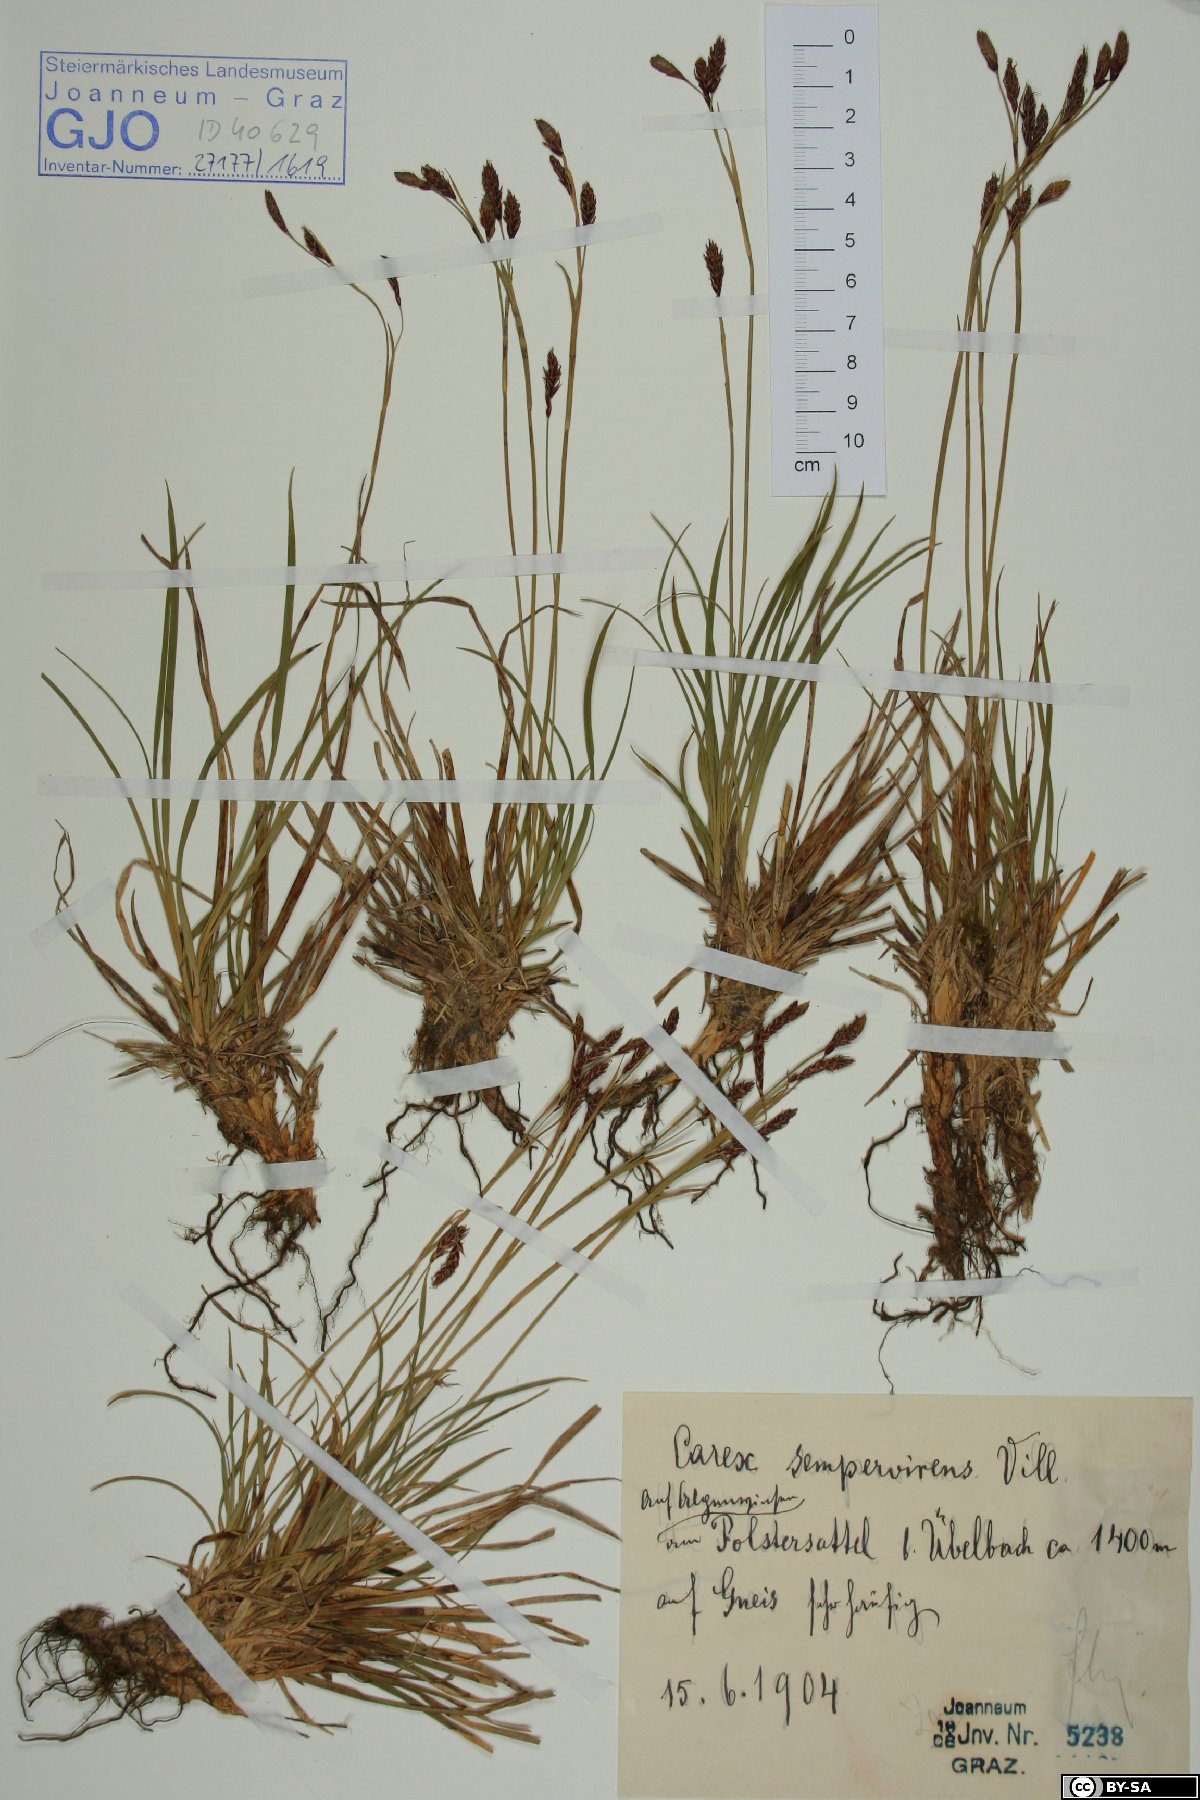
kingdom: Plantae
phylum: Tracheophyta
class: Liliopsida
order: Poales
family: Cyperaceae
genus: Carex
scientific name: Carex sempervirens
